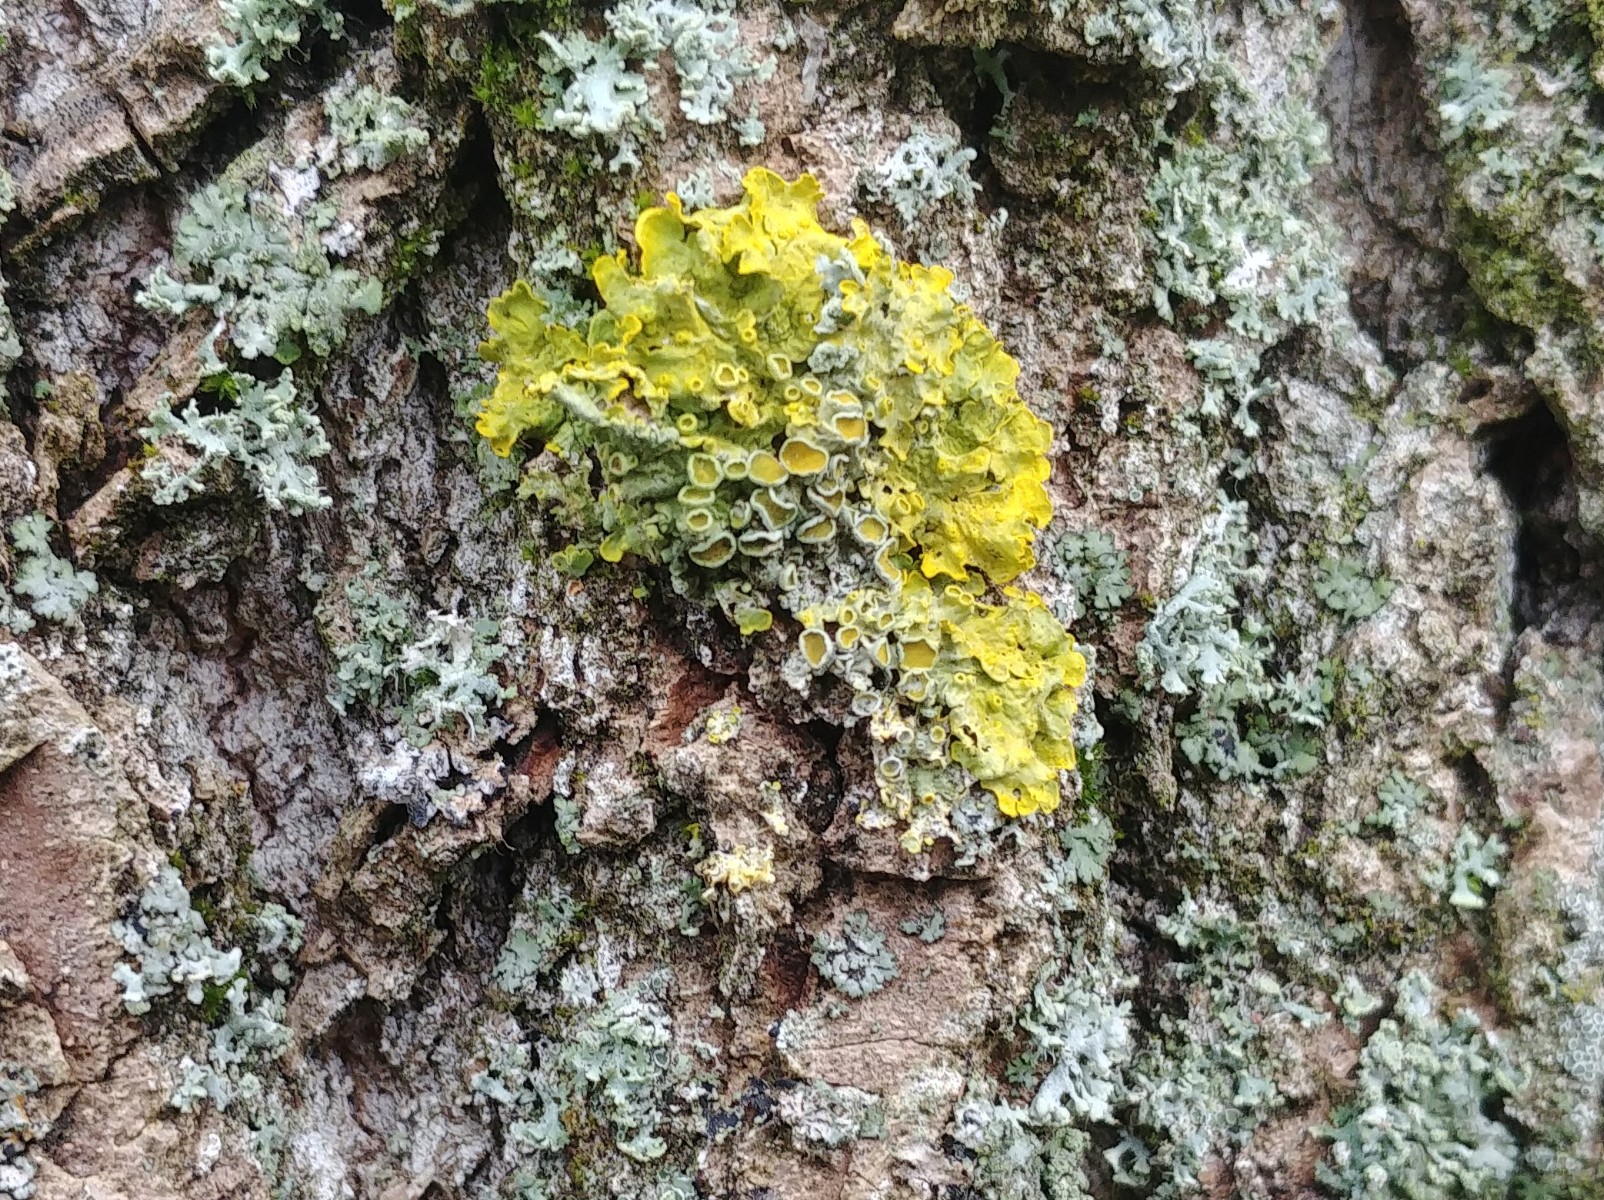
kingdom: Fungi
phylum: Ascomycota
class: Lecanoromycetes
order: Teloschistales
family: Teloschistaceae
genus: Xanthoria
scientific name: Xanthoria parietina
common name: almindelig væggelav
